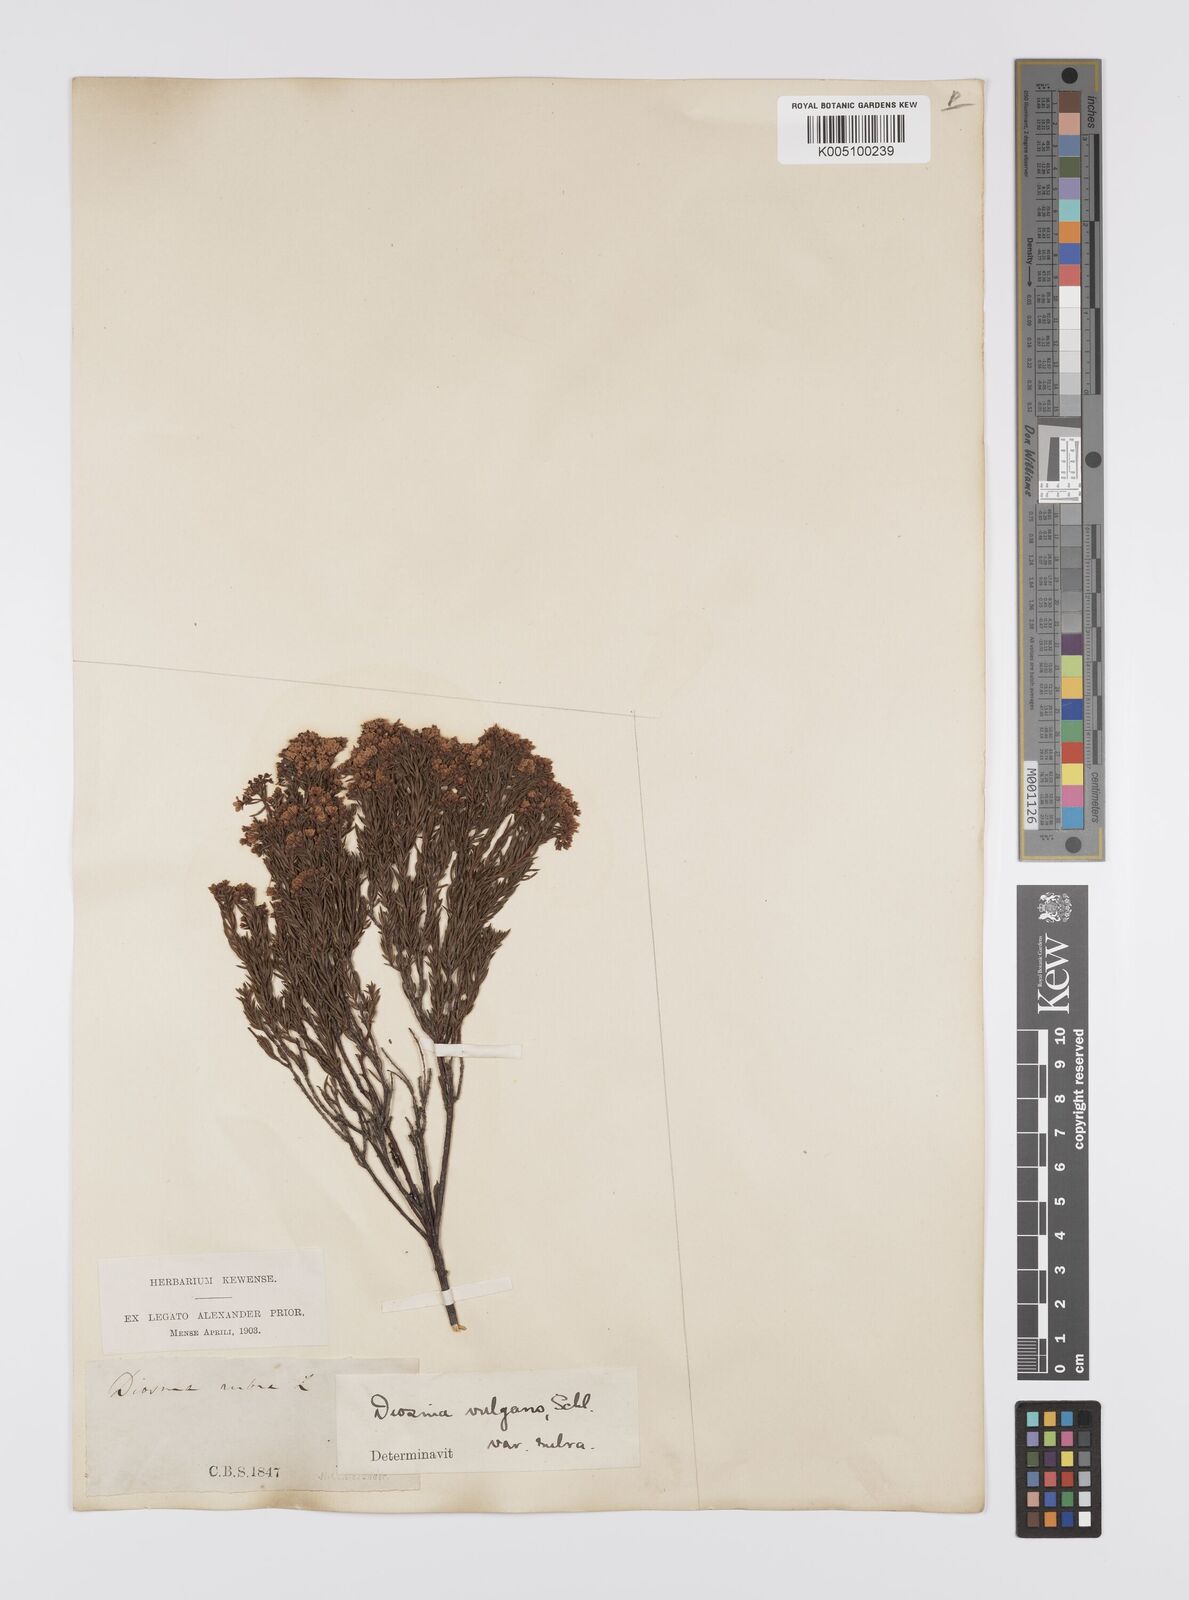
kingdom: Plantae
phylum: Tracheophyta
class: Magnoliopsida
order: Sapindales
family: Rutaceae
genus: Diosma
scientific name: Diosma hirsuta
